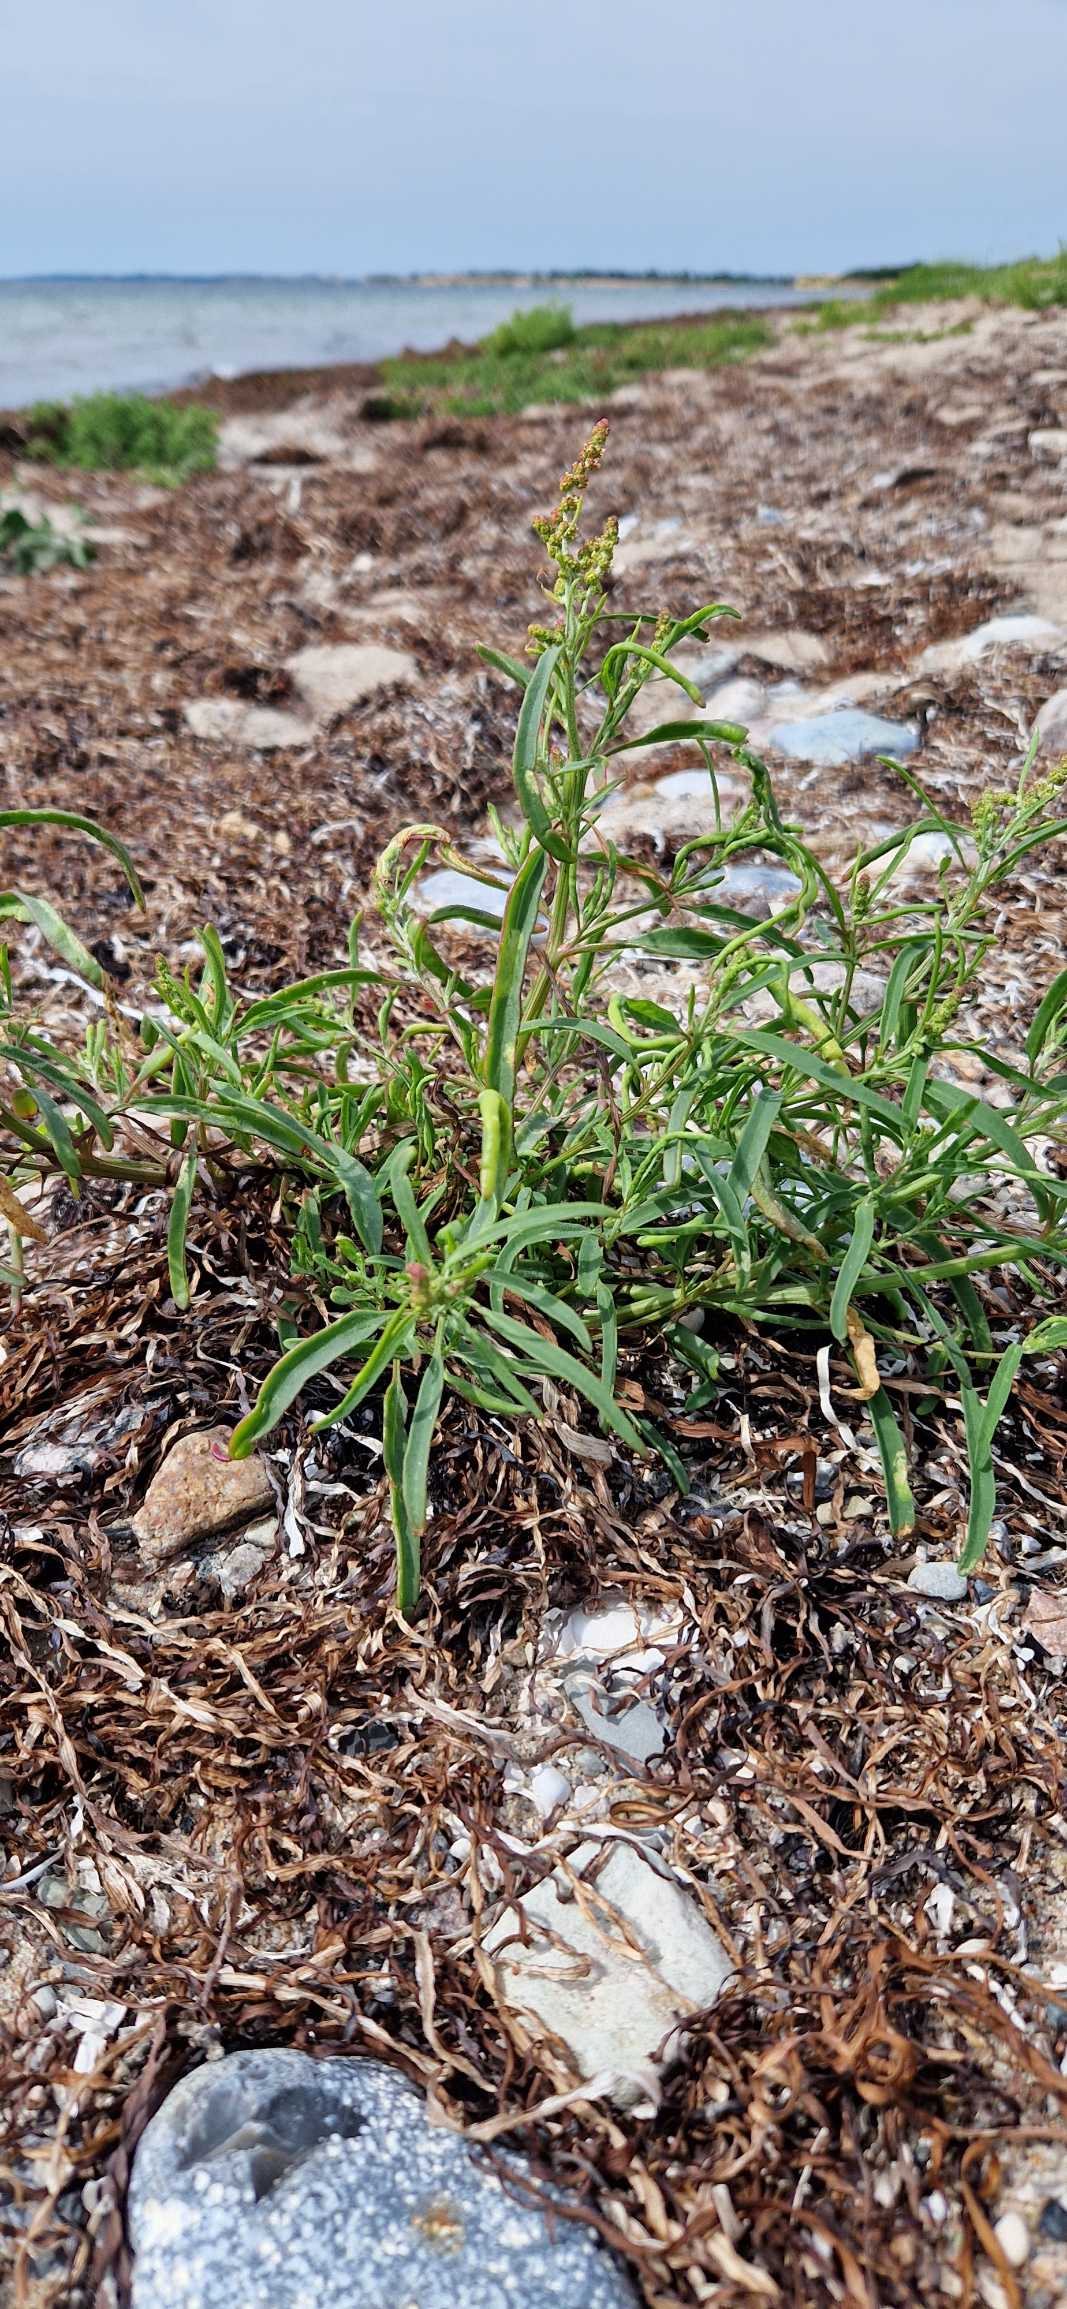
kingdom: Plantae
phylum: Tracheophyta
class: Magnoliopsida
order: Caryophyllales
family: Amaranthaceae
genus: Atriplex
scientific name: Atriplex littoralis
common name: Strand-mælde
